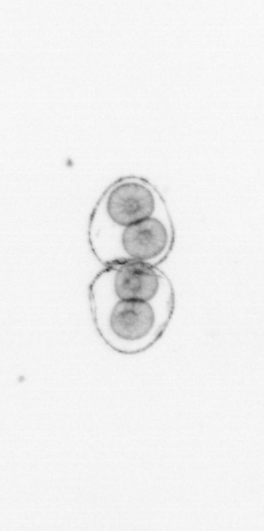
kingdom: Chromista
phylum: Myzozoa
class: Dinophyceae
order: Noctilucales
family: Noctilucaceae
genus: Noctiluca
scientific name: Noctiluca scintillans
